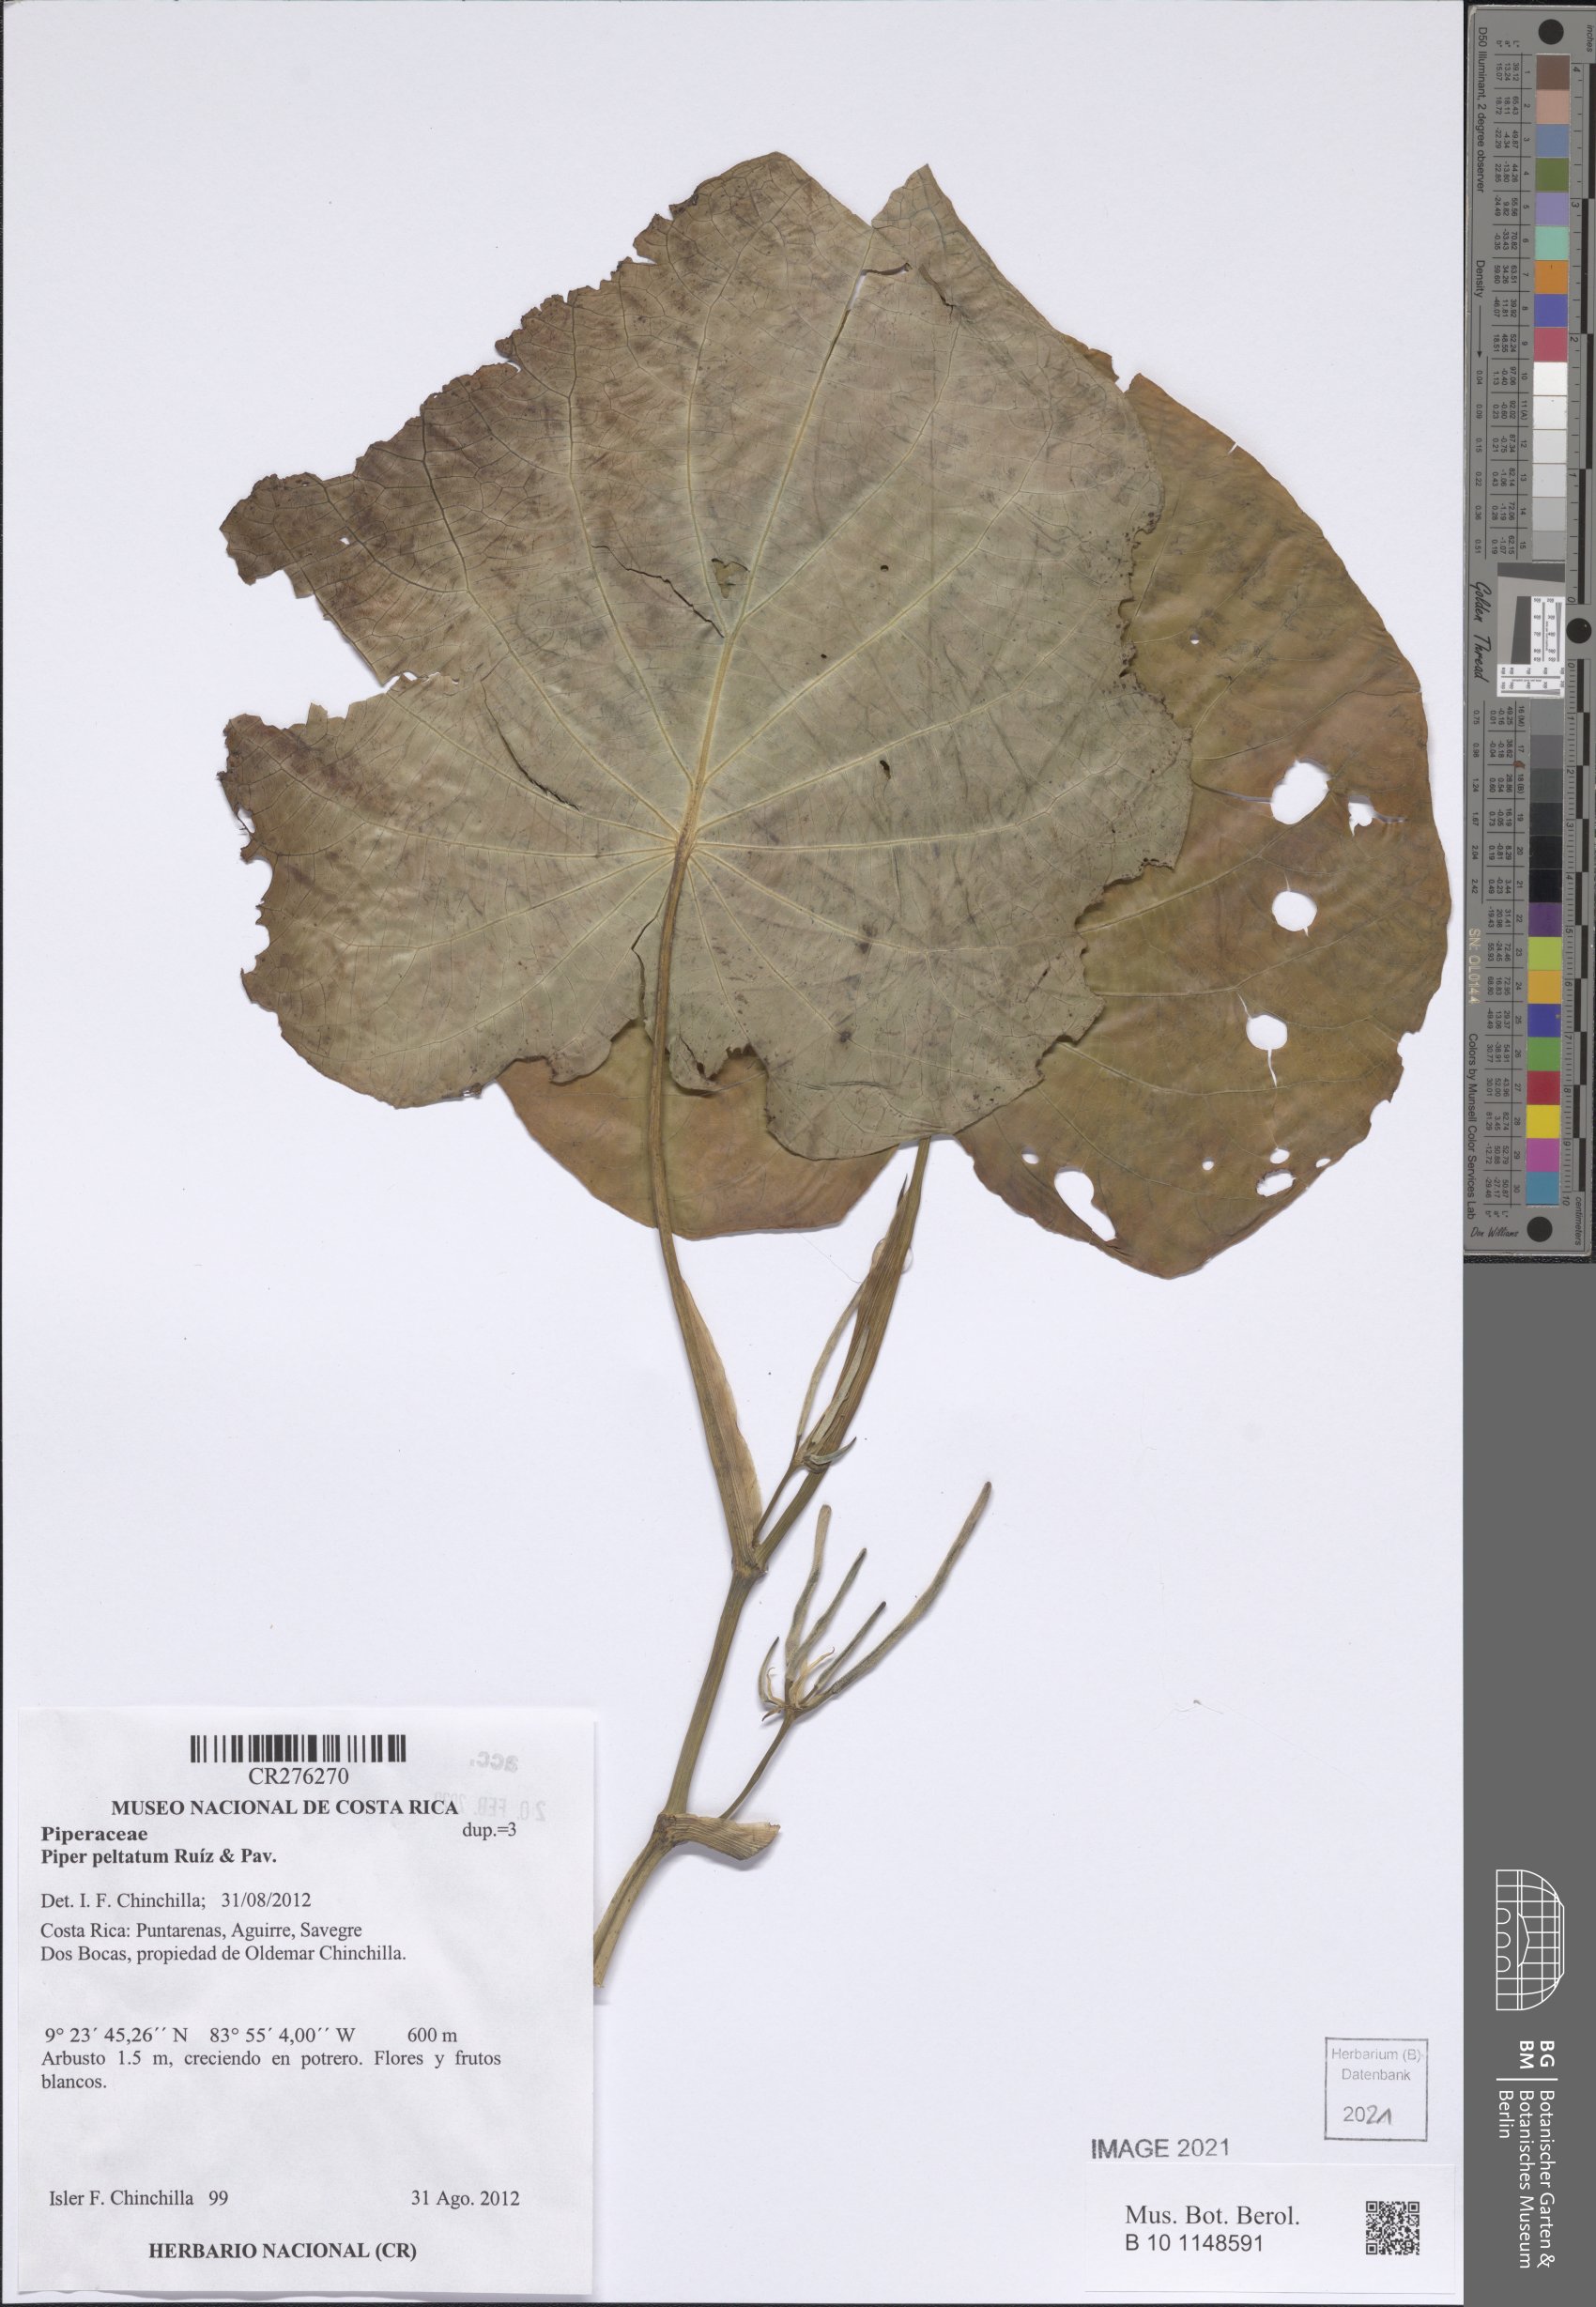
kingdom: Plantae
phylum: Tracheophyta
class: Magnoliopsida
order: Piperales
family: Piperaceae
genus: Piper
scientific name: Piper peltatum
